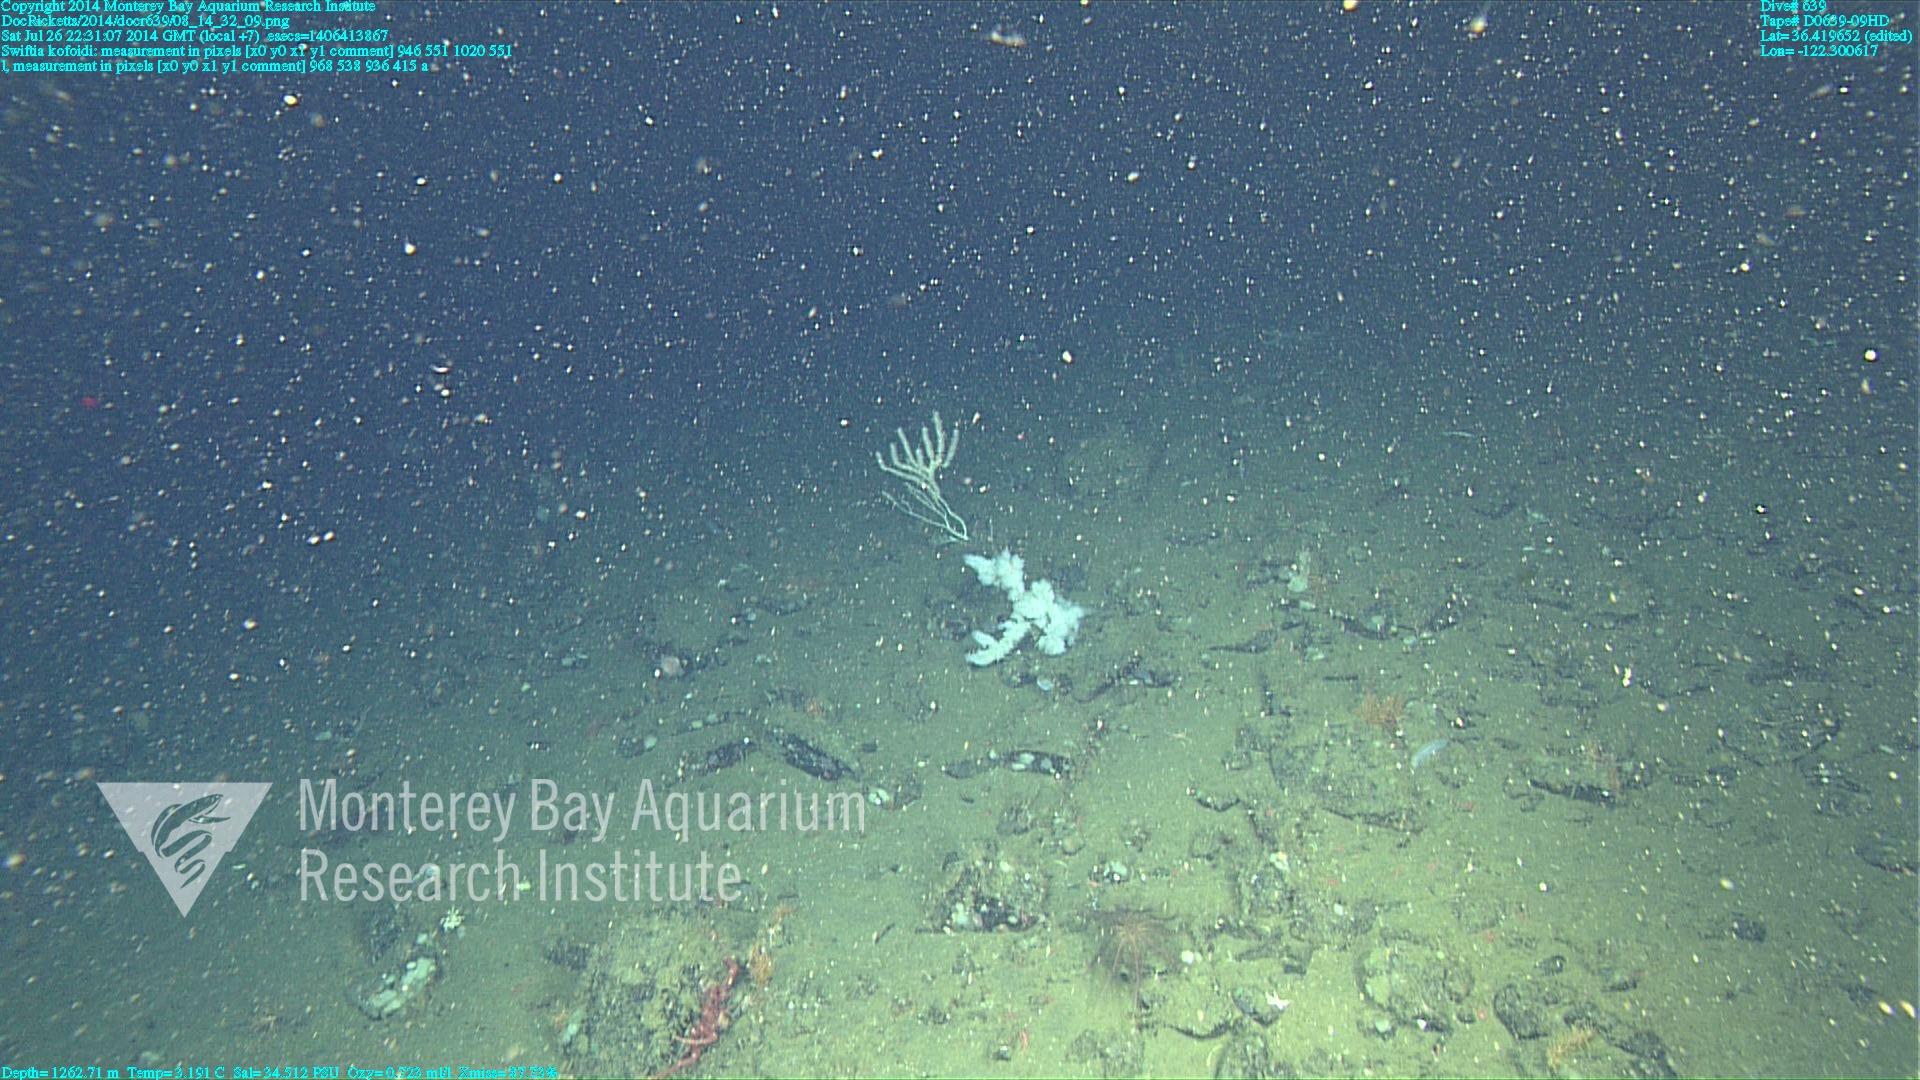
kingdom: Animalia
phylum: Cnidaria
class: Anthozoa
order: Malacalcyonacea
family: Gorgoniidae
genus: Callistephanus
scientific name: Callistephanus kofoidi
